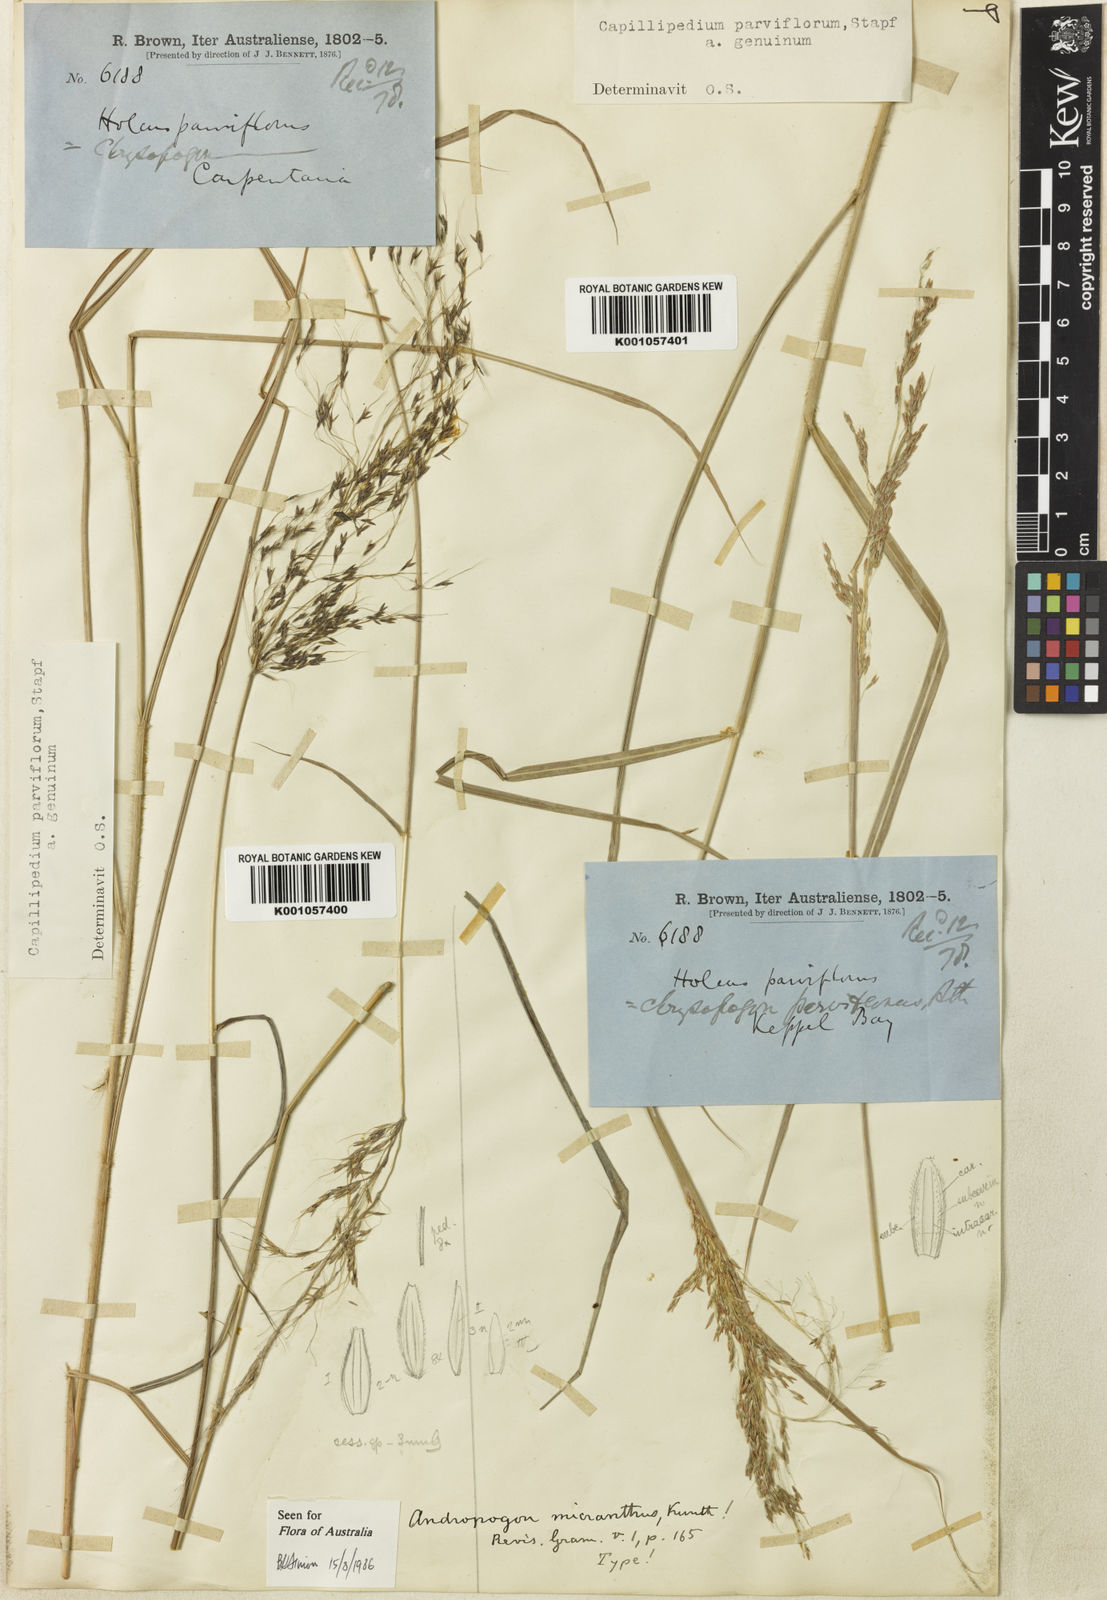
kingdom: Plantae
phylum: Tracheophyta
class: Liliopsida
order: Poales
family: Poaceae
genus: Capillipedium
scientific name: Capillipedium parviflorum
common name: Golden-beard
